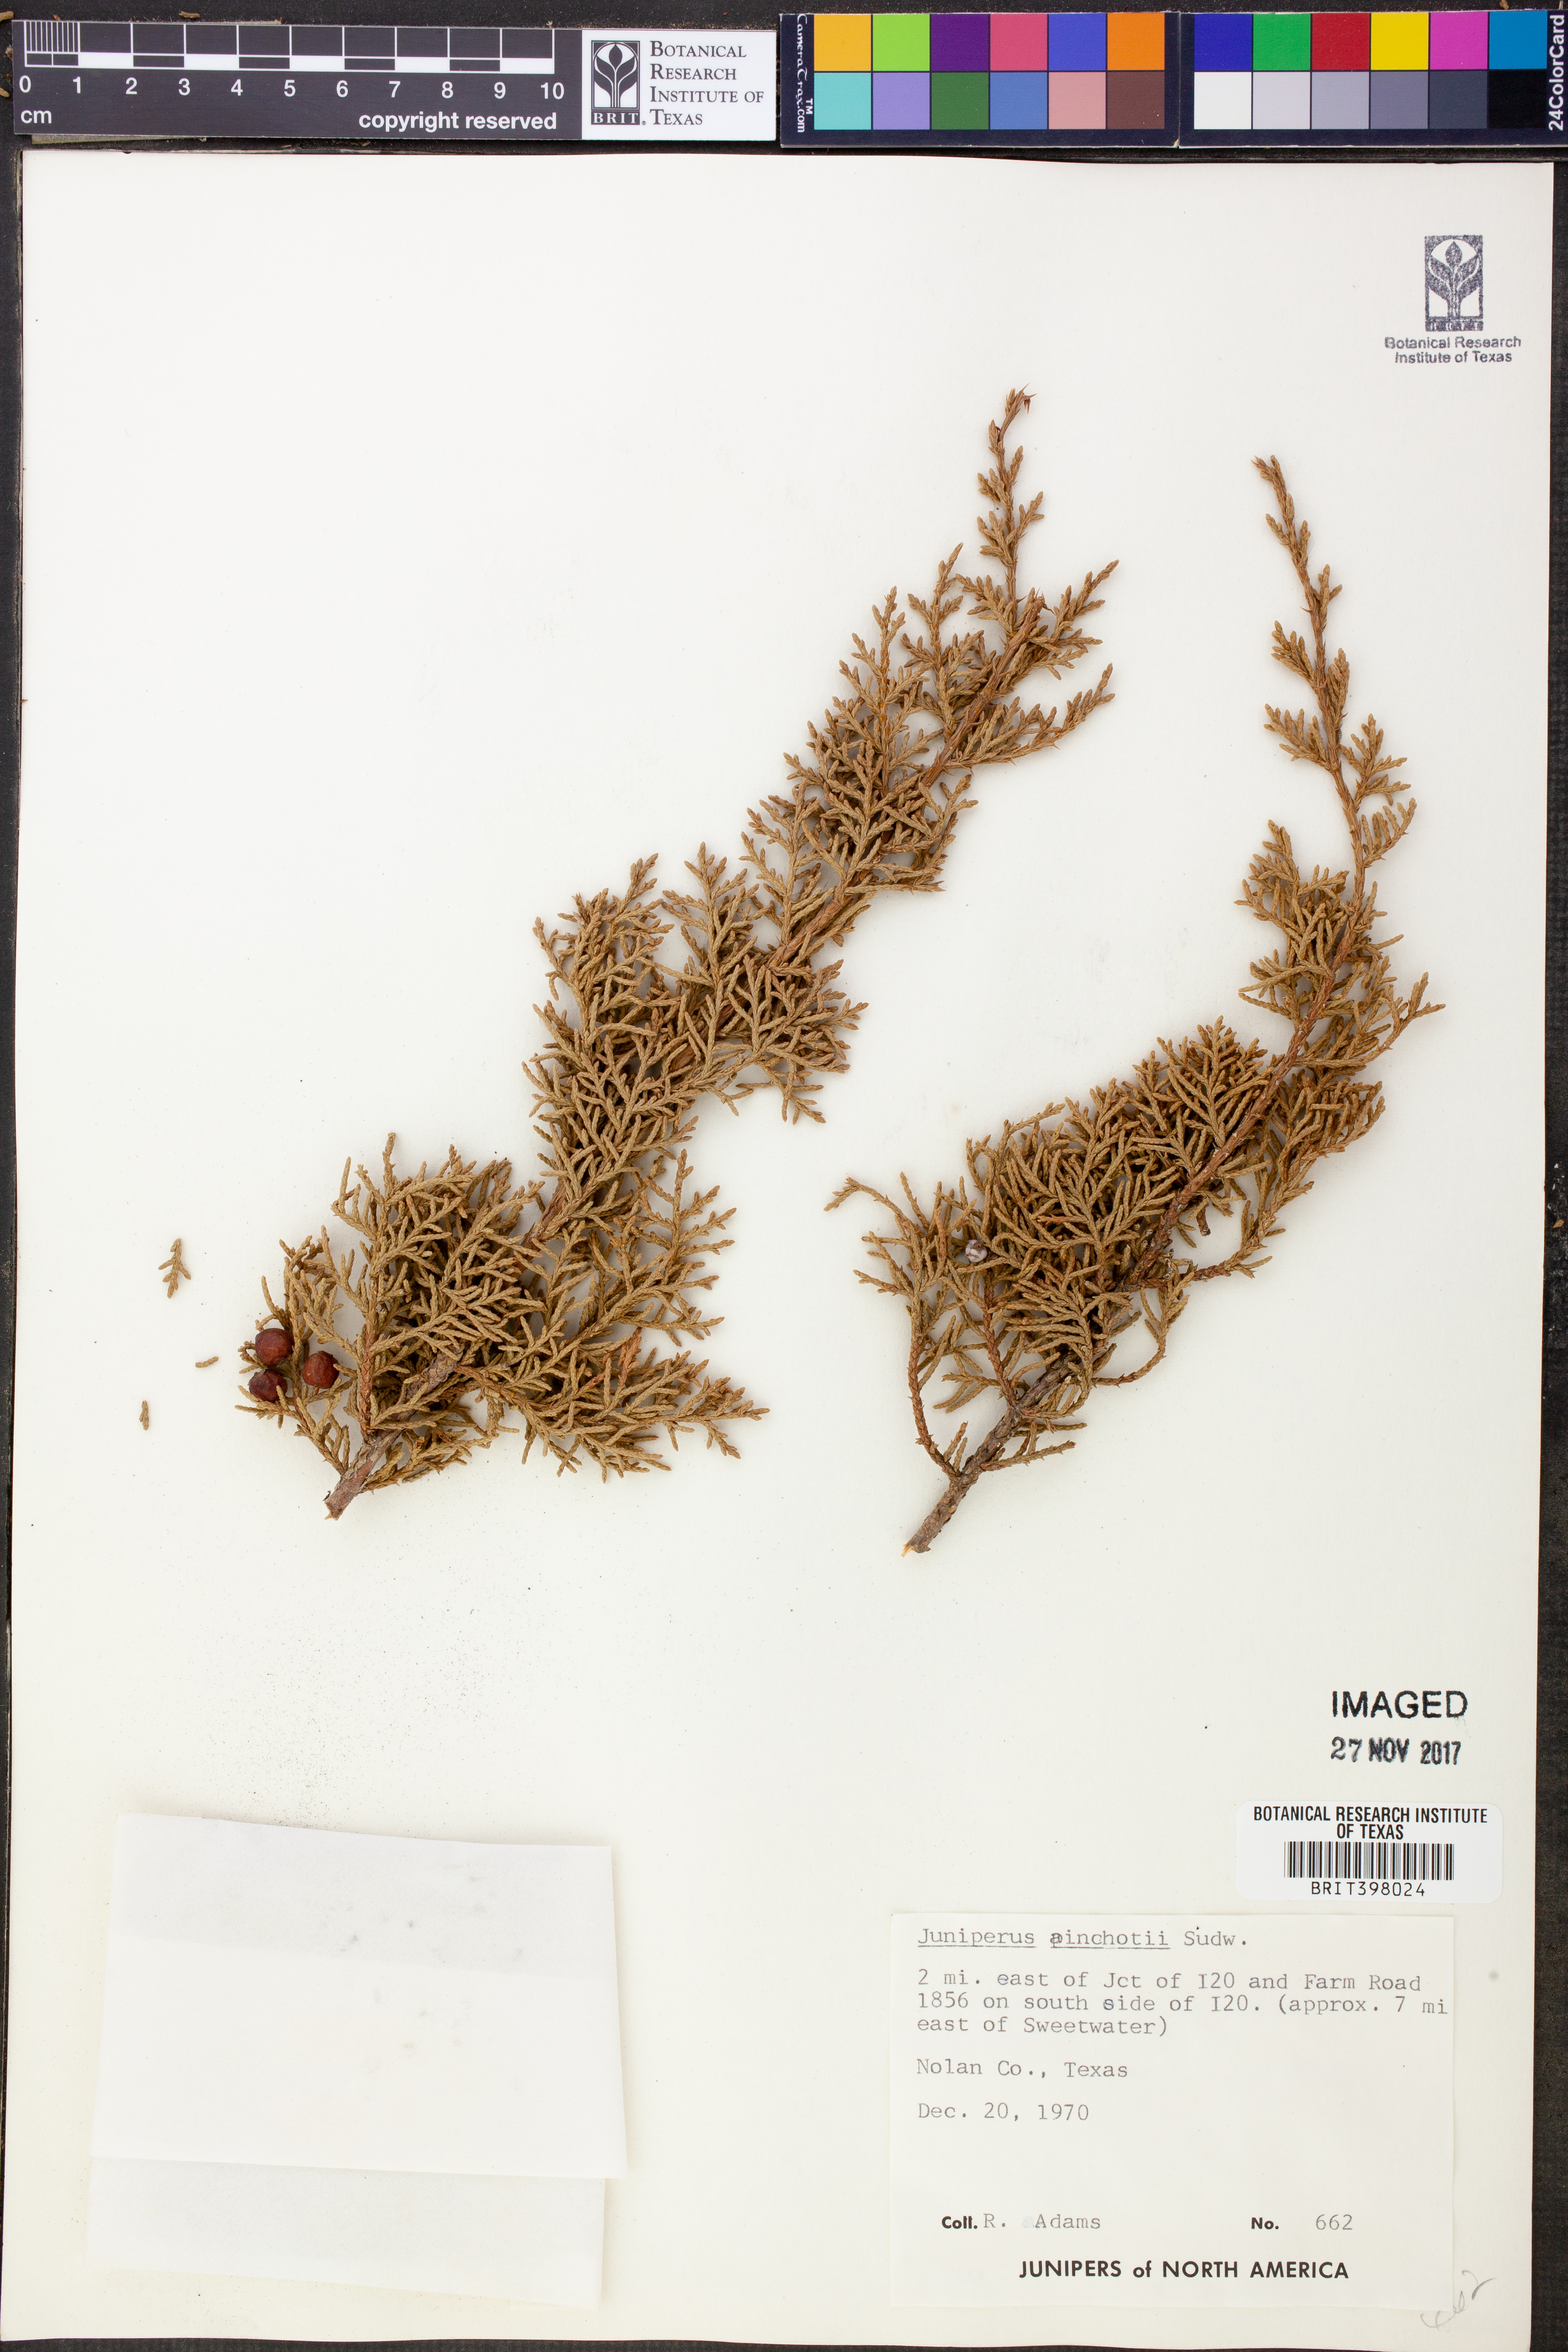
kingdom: Plantae
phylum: Tracheophyta
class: Pinopsida
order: Pinales
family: Cupressaceae
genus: Juniperus
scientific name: Juniperus pinchotii
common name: Pinchot juniper
